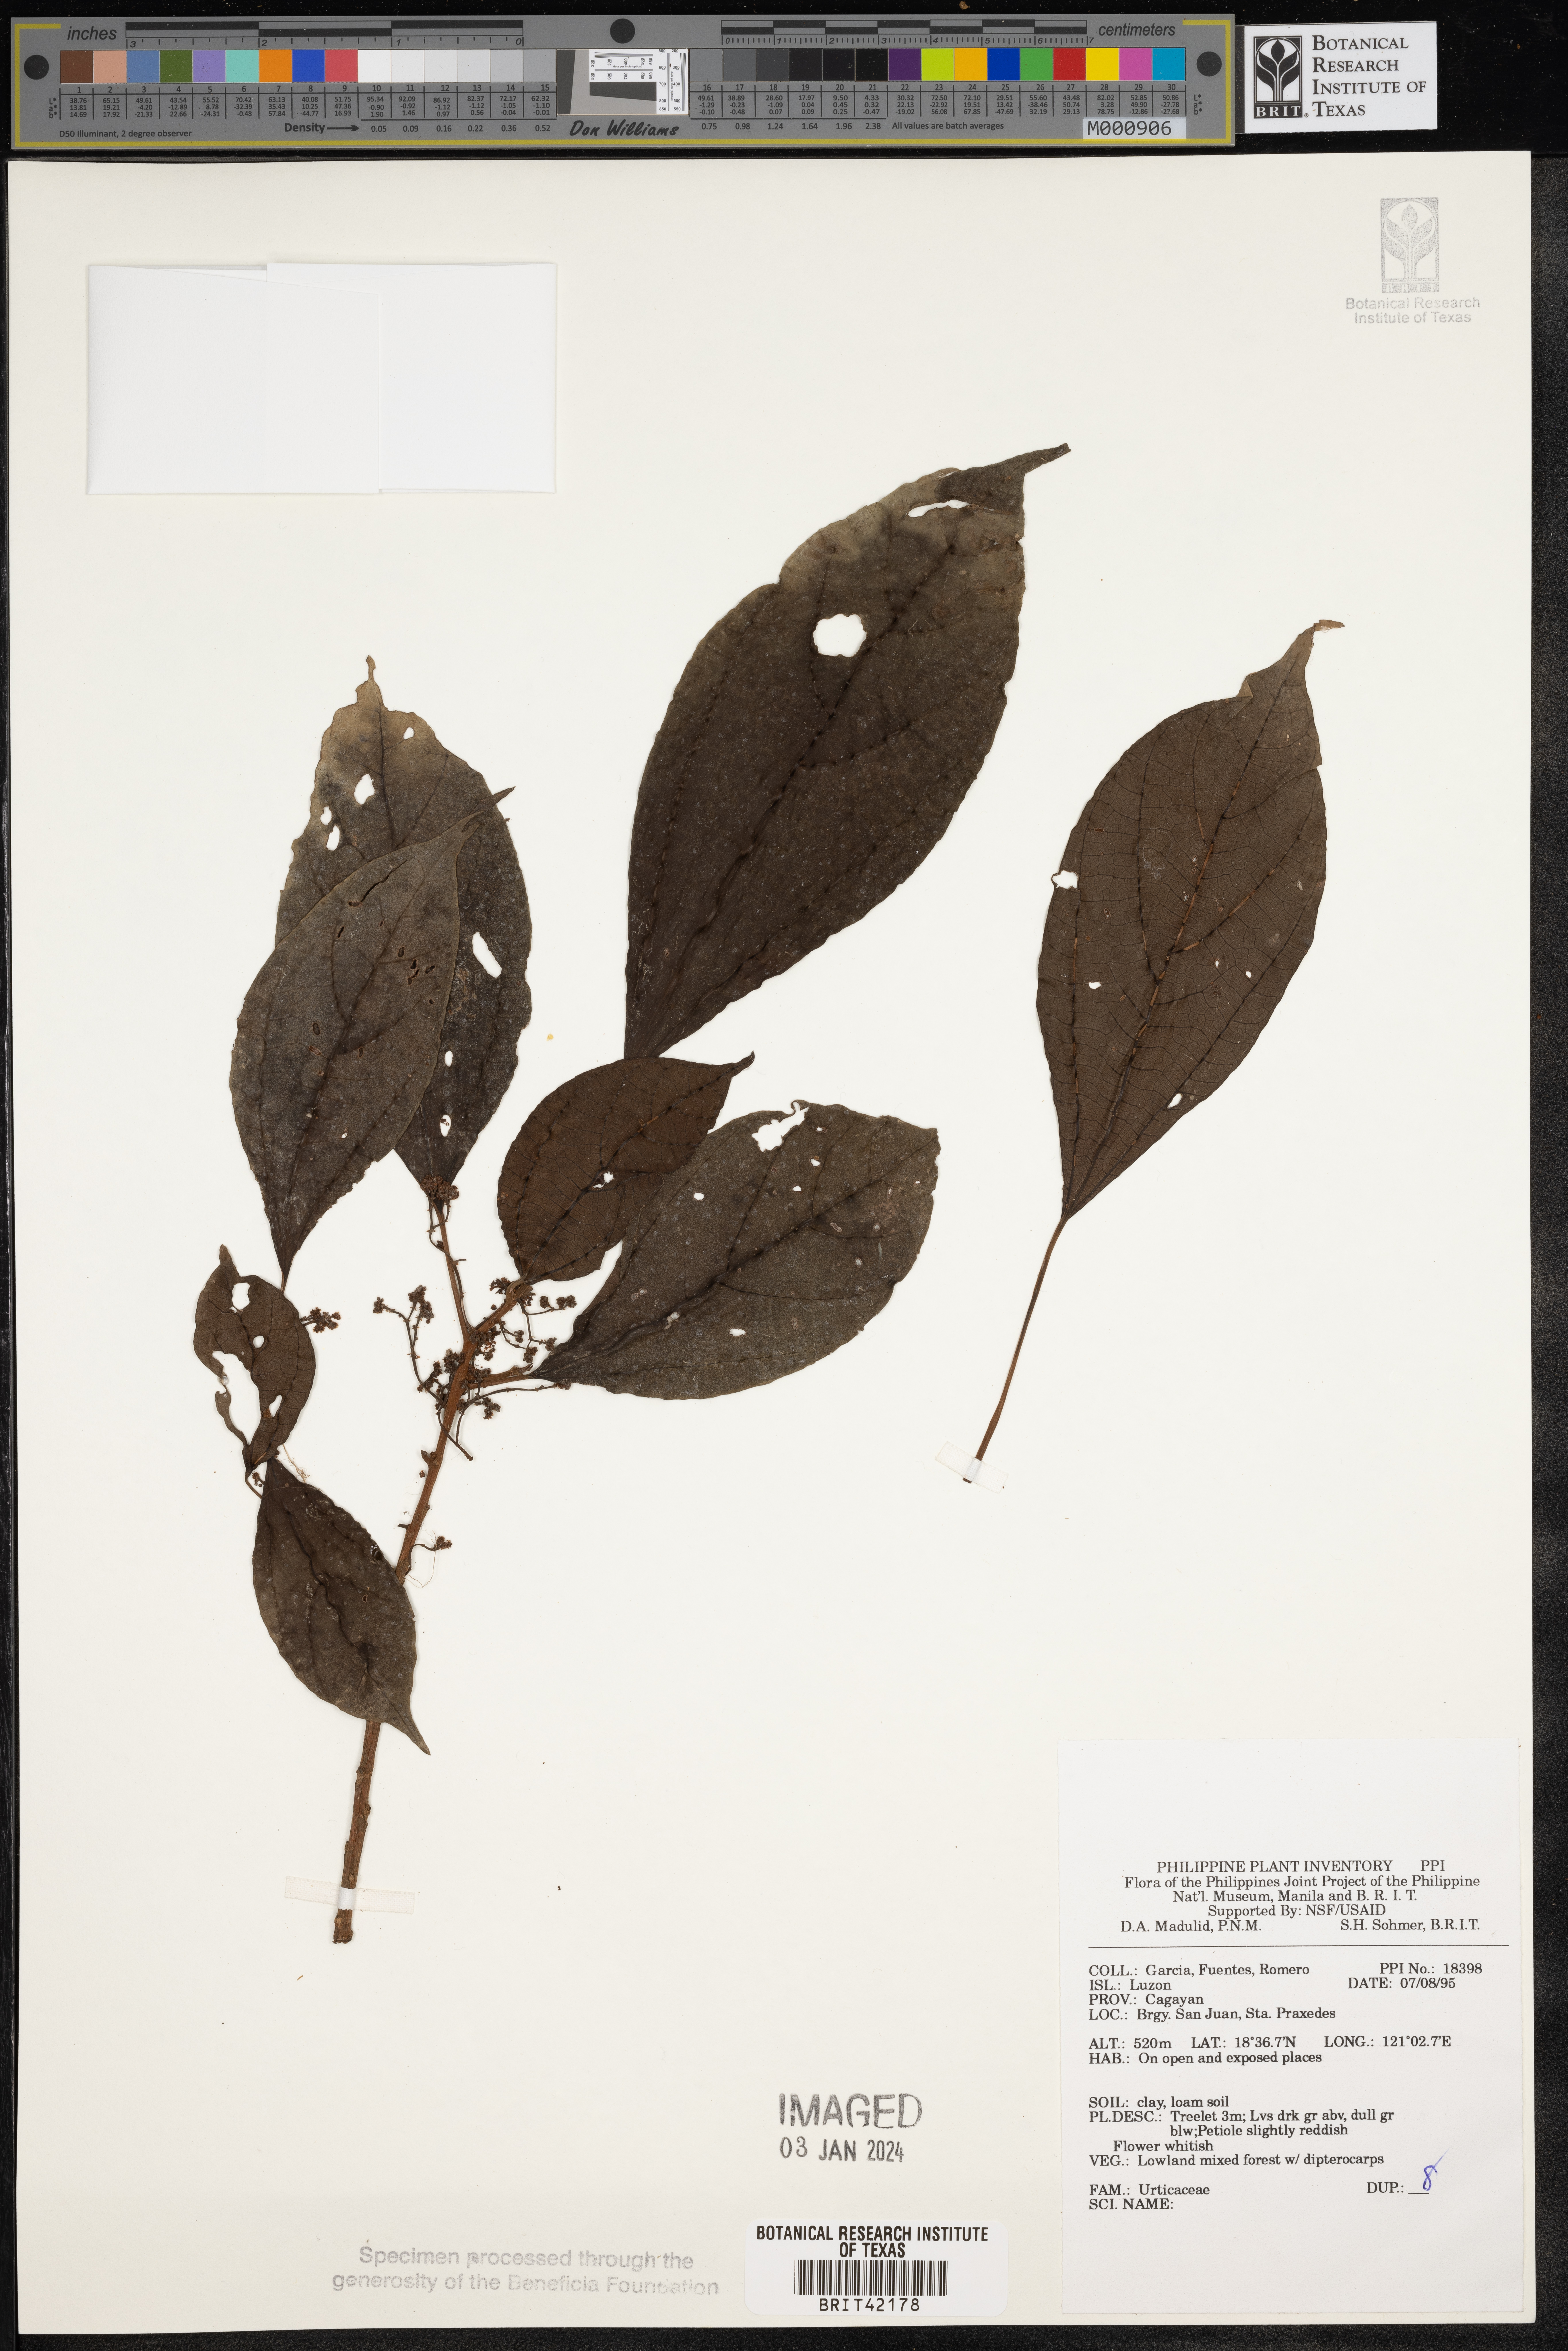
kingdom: Plantae
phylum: Tracheophyta
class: Magnoliopsida
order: Rosales
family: Urticaceae
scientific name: Urticaceae
